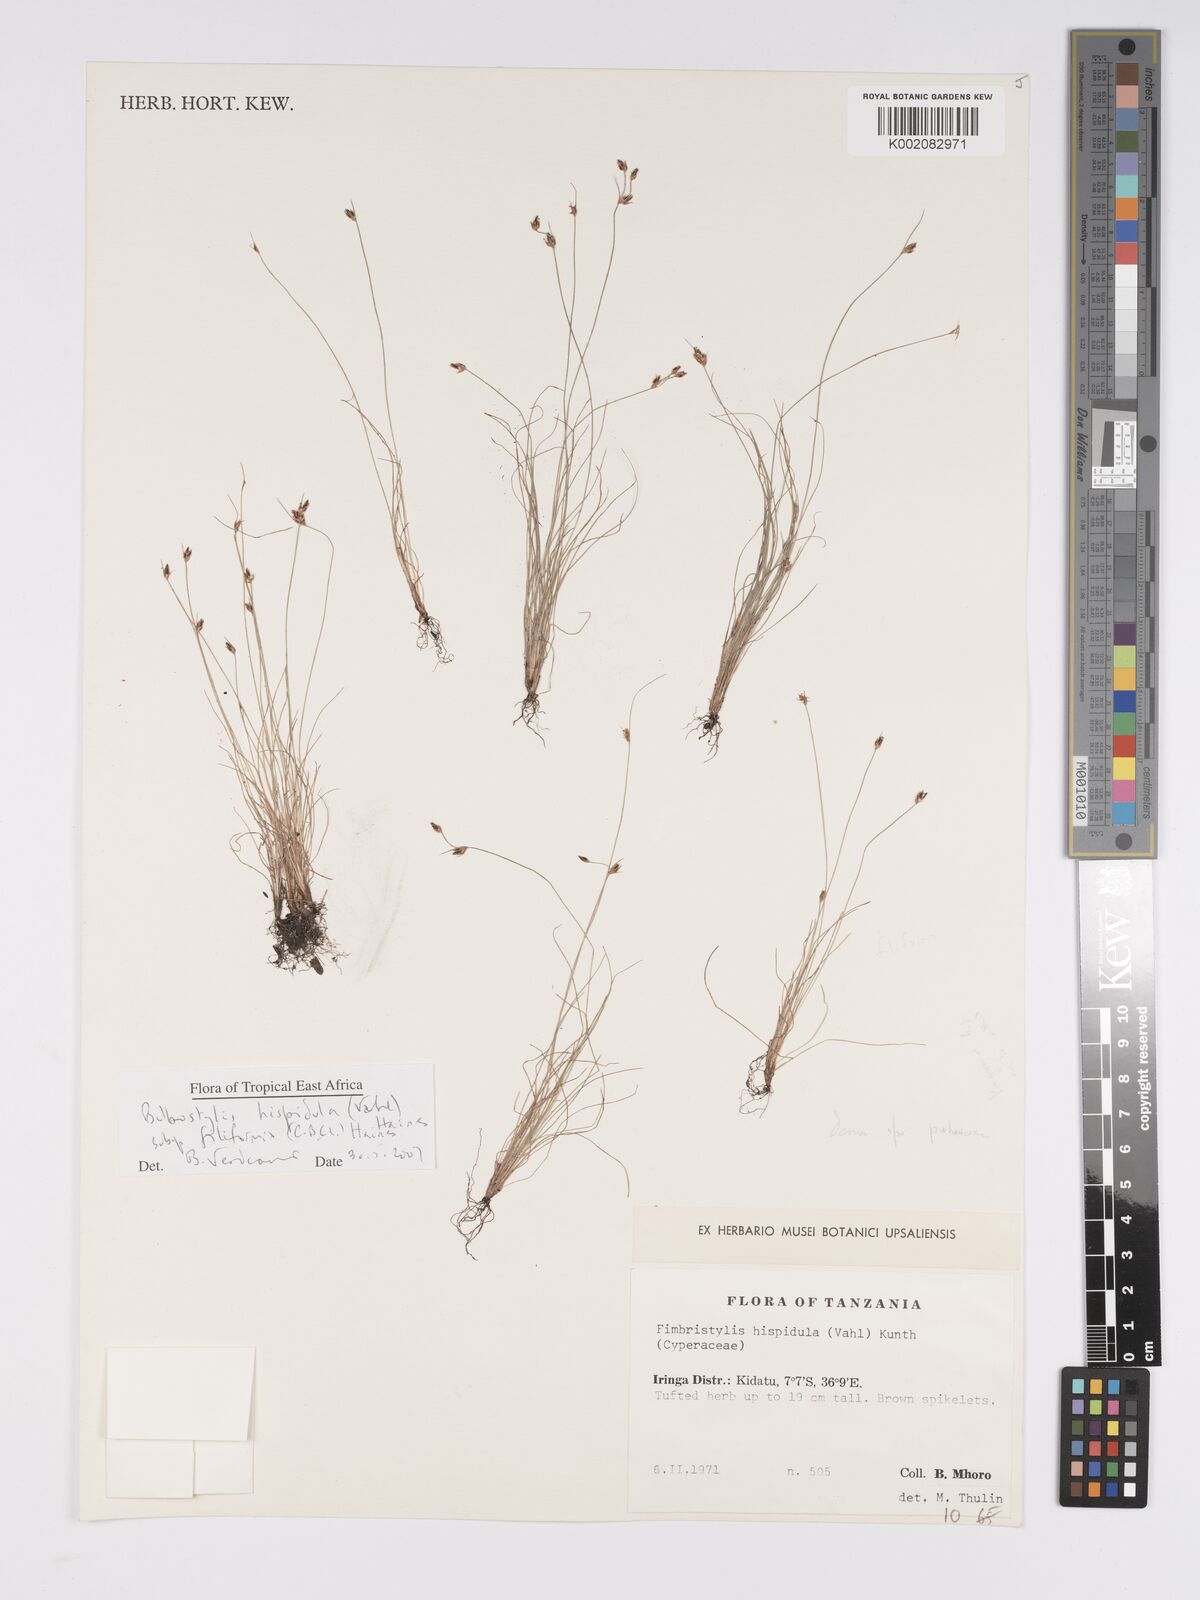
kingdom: Plantae
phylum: Tracheophyta
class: Liliopsida
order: Poales
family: Cyperaceae
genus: Bulbostylis
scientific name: Bulbostylis hispidula
